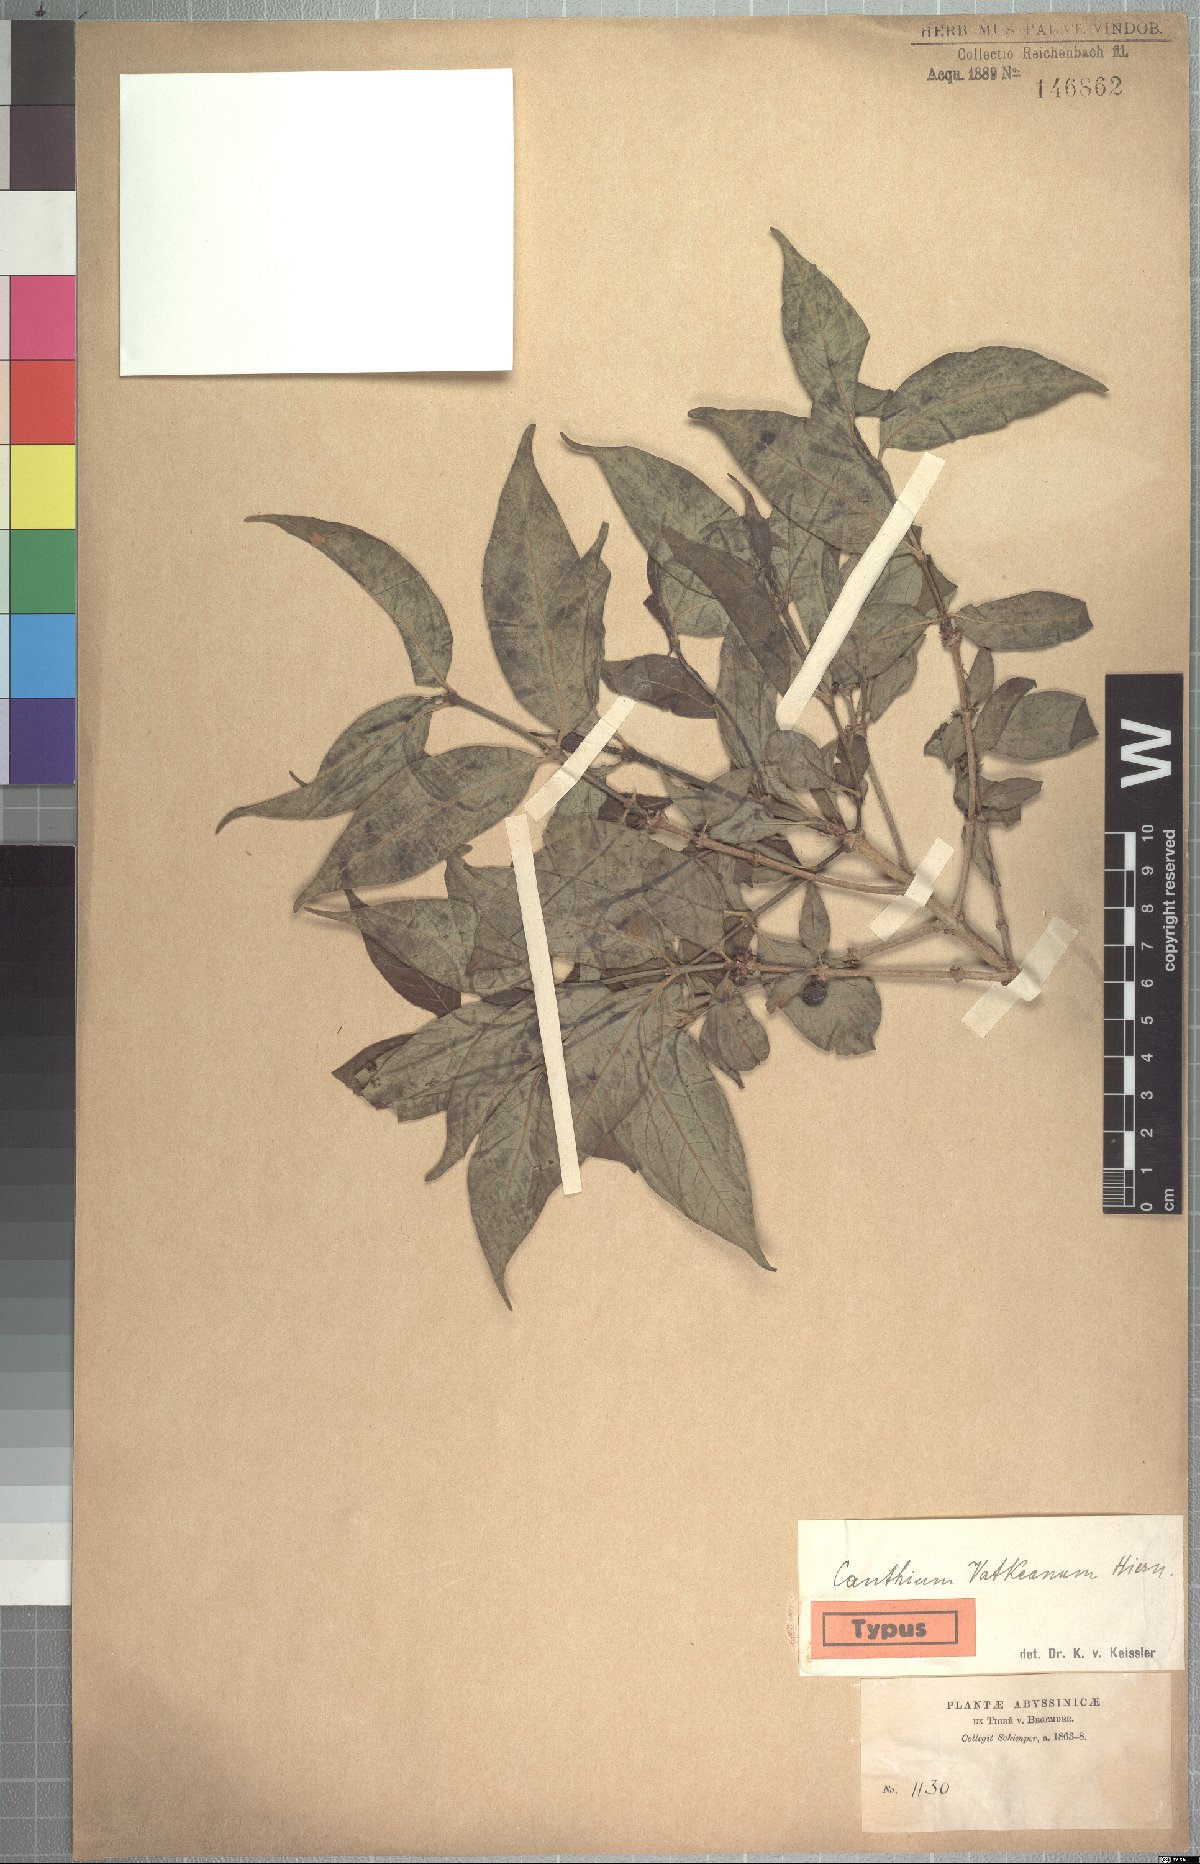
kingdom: Plantae
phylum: Tracheophyta
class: Magnoliopsida
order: Gentianales
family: Rubiaceae
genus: Rytigynia
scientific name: Rytigynia neglecta
